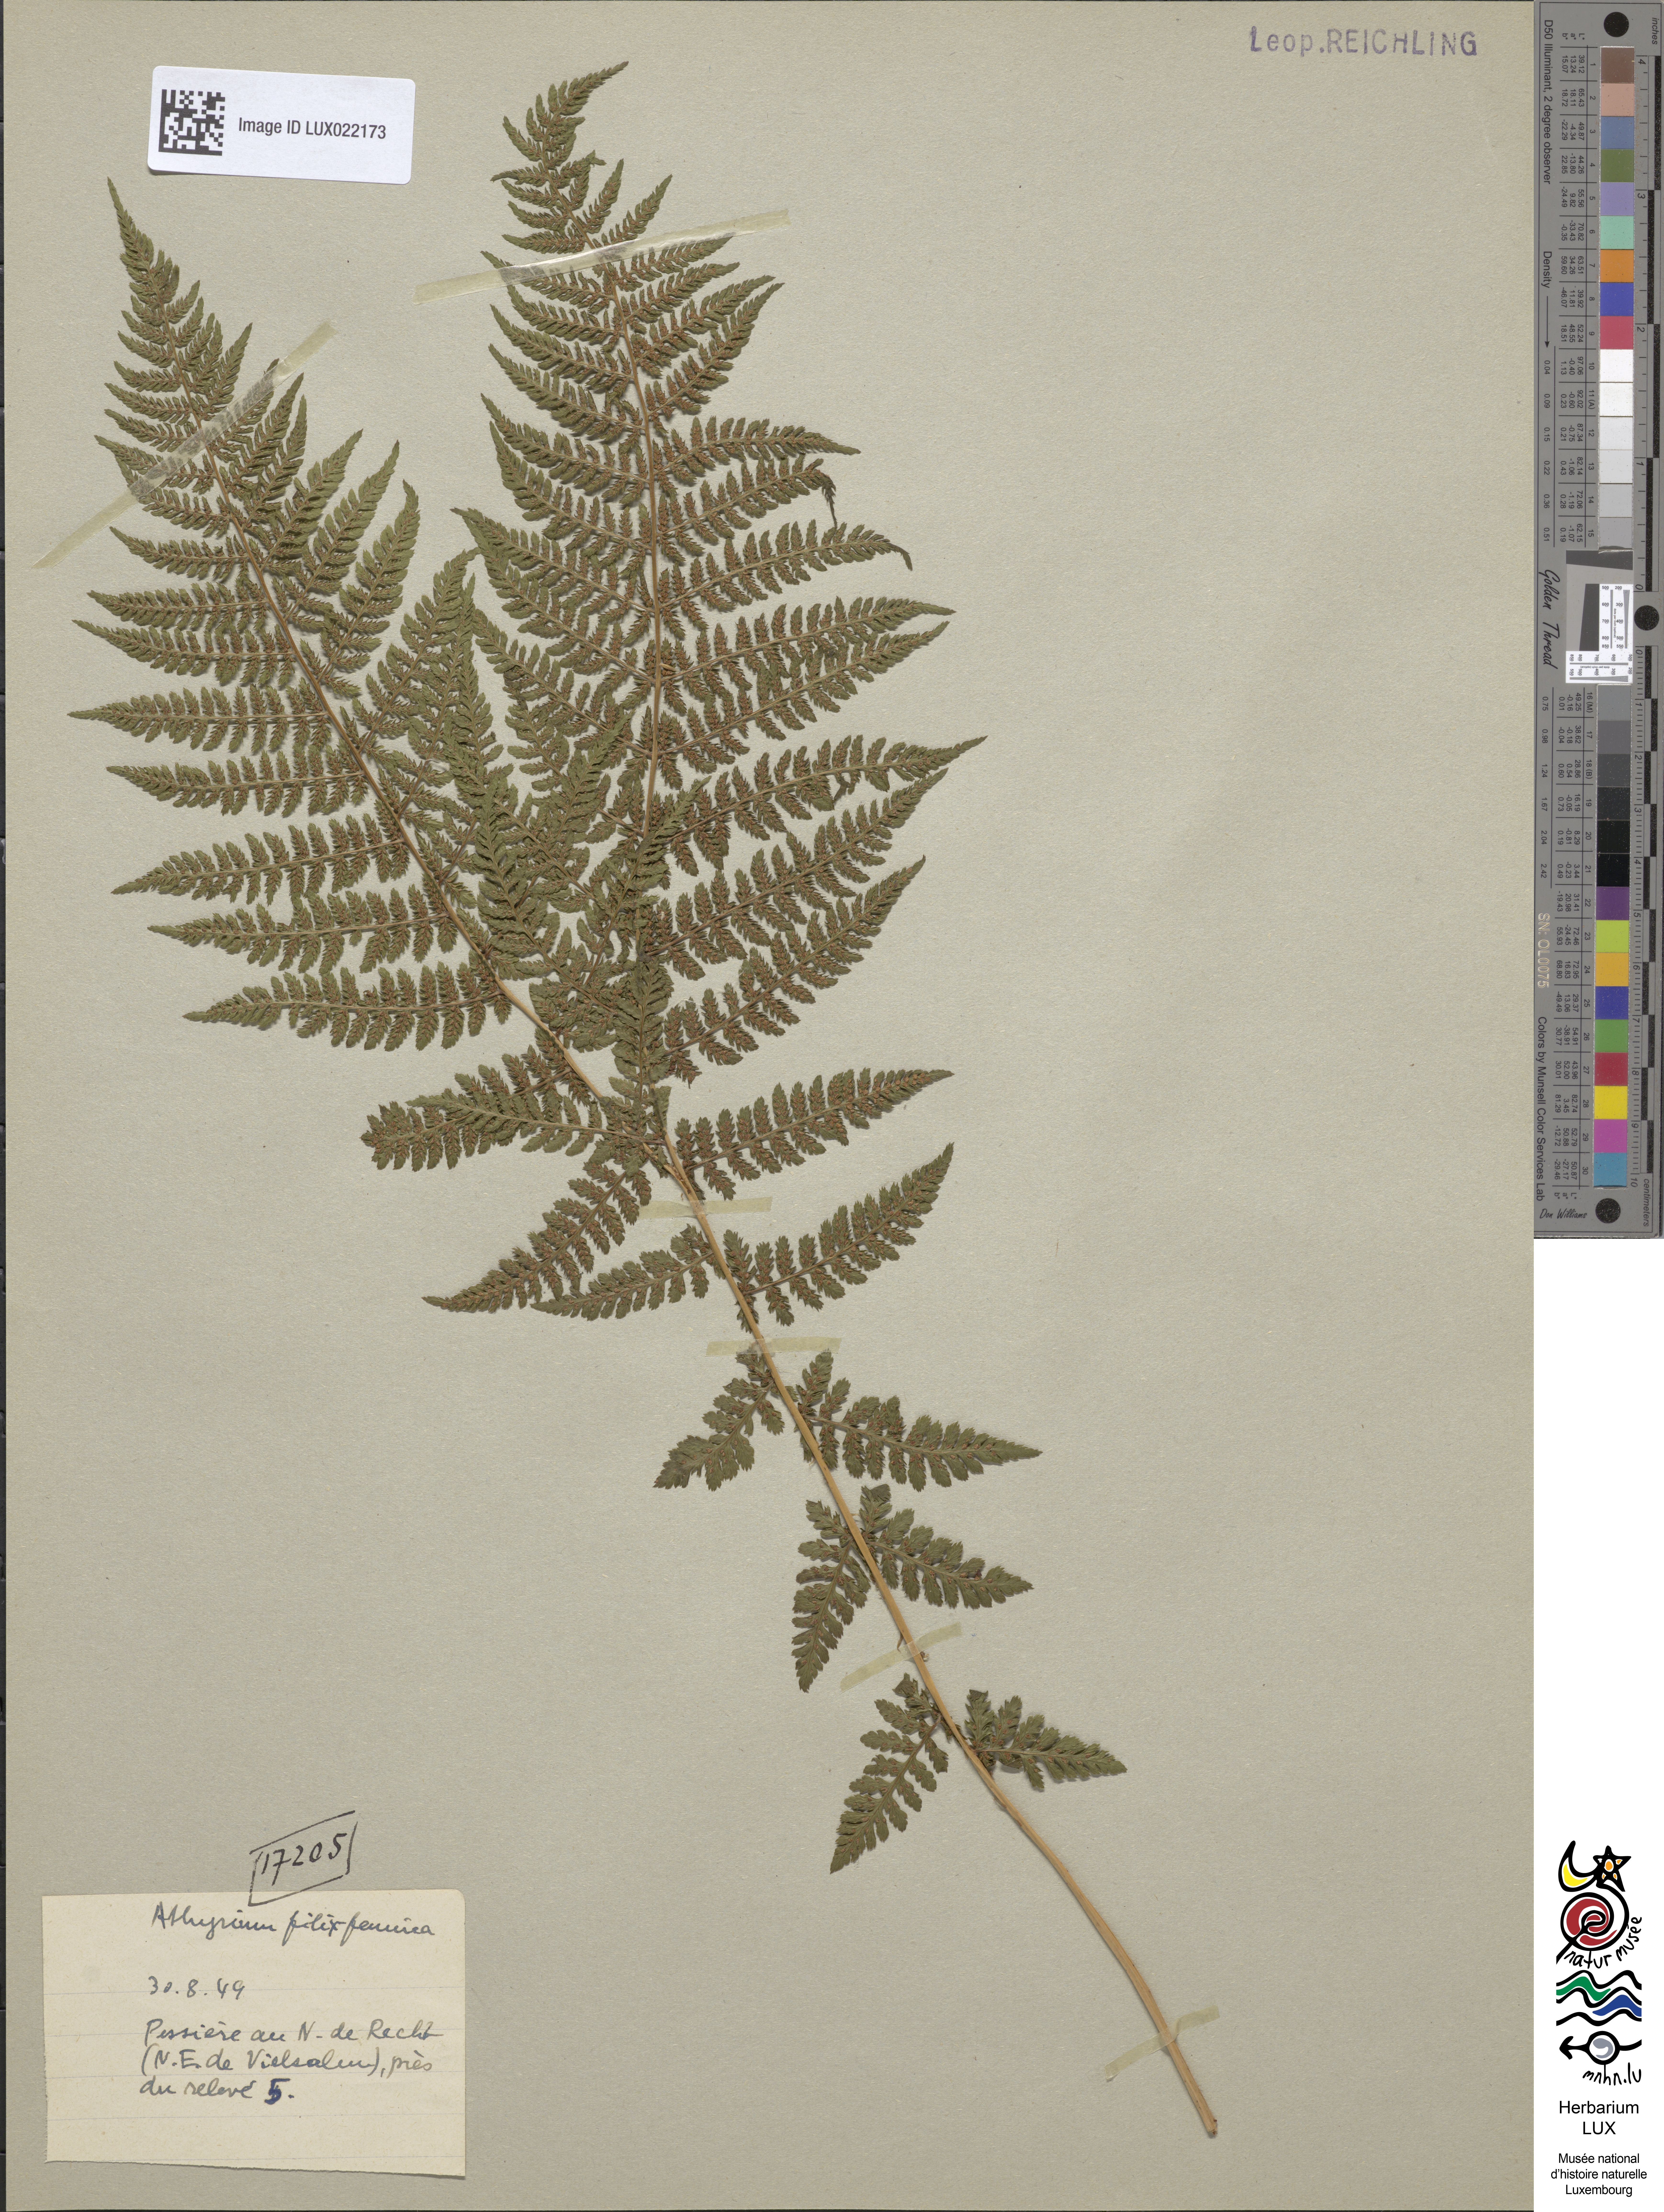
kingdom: Plantae
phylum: Tracheophyta
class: Polypodiopsida
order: Polypodiales
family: Athyriaceae
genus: Athyrium
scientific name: Athyrium filix-femina
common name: Lady fern
